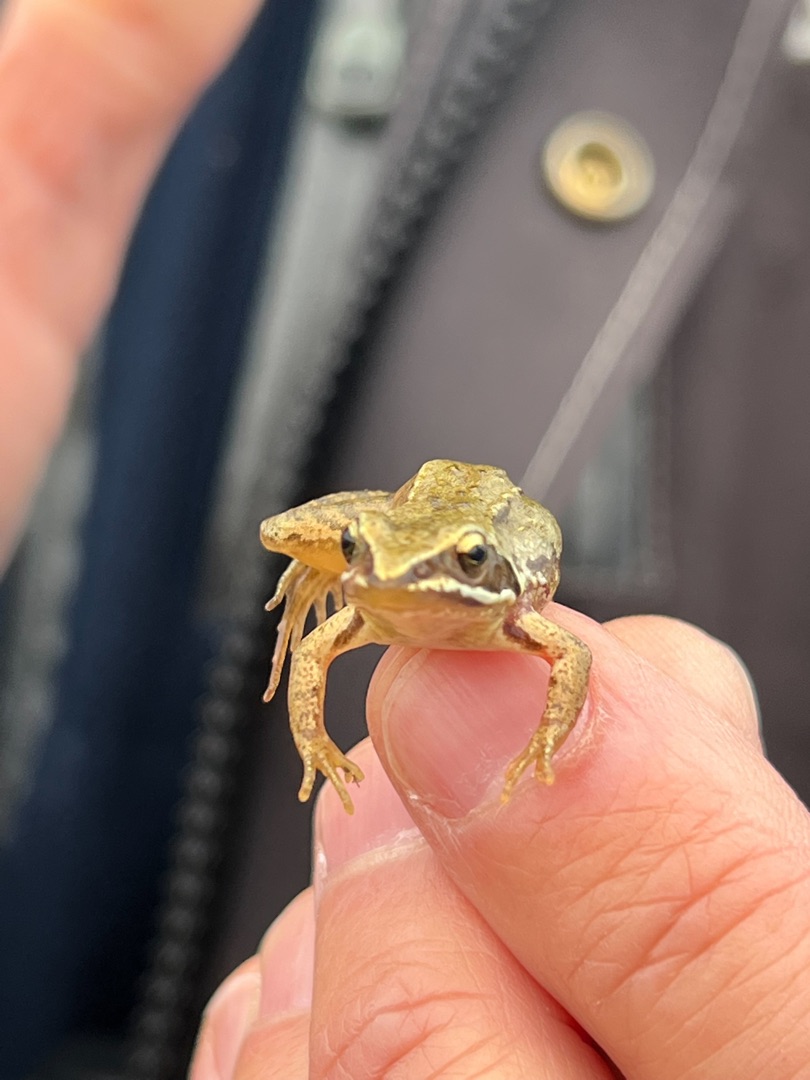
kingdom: Animalia
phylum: Chordata
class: Amphibia
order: Anura
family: Ranidae
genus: Rana
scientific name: Rana arvalis
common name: Spidssnudet frø
